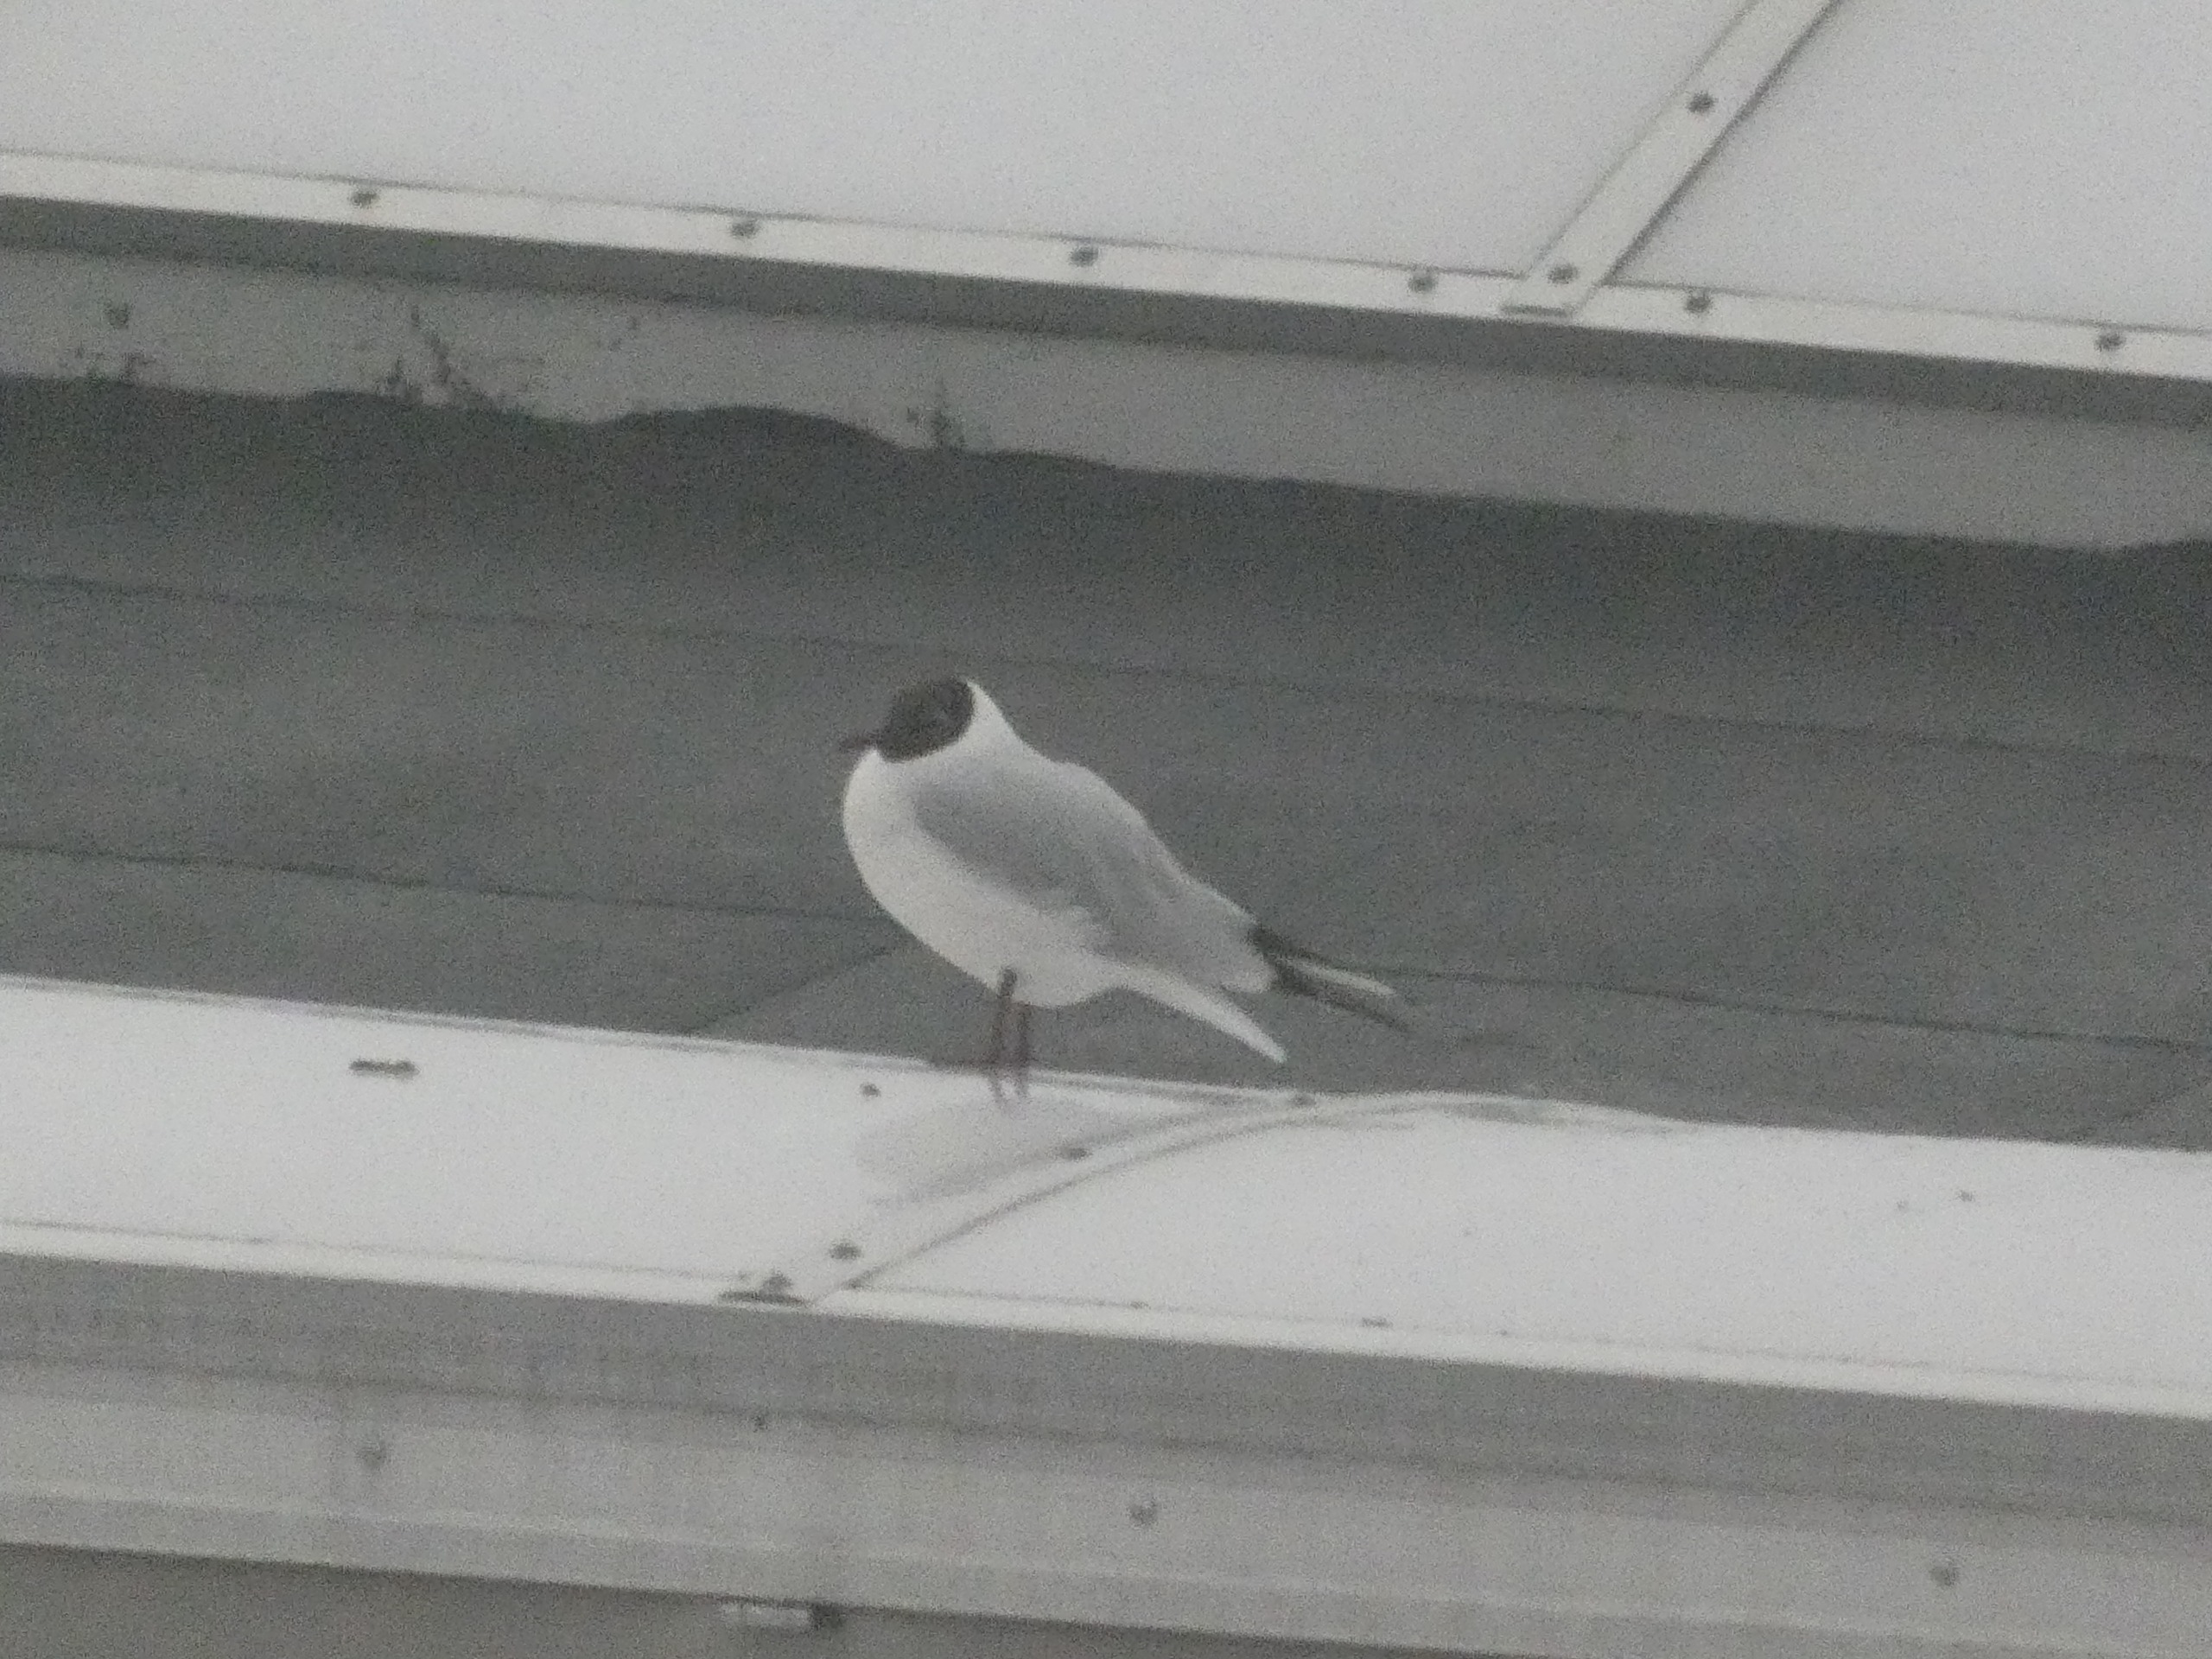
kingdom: Animalia
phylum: Chordata
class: Aves
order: Charadriiformes
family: Laridae
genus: Chroicocephalus
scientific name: Chroicocephalus ridibundus
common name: Hættemåge
